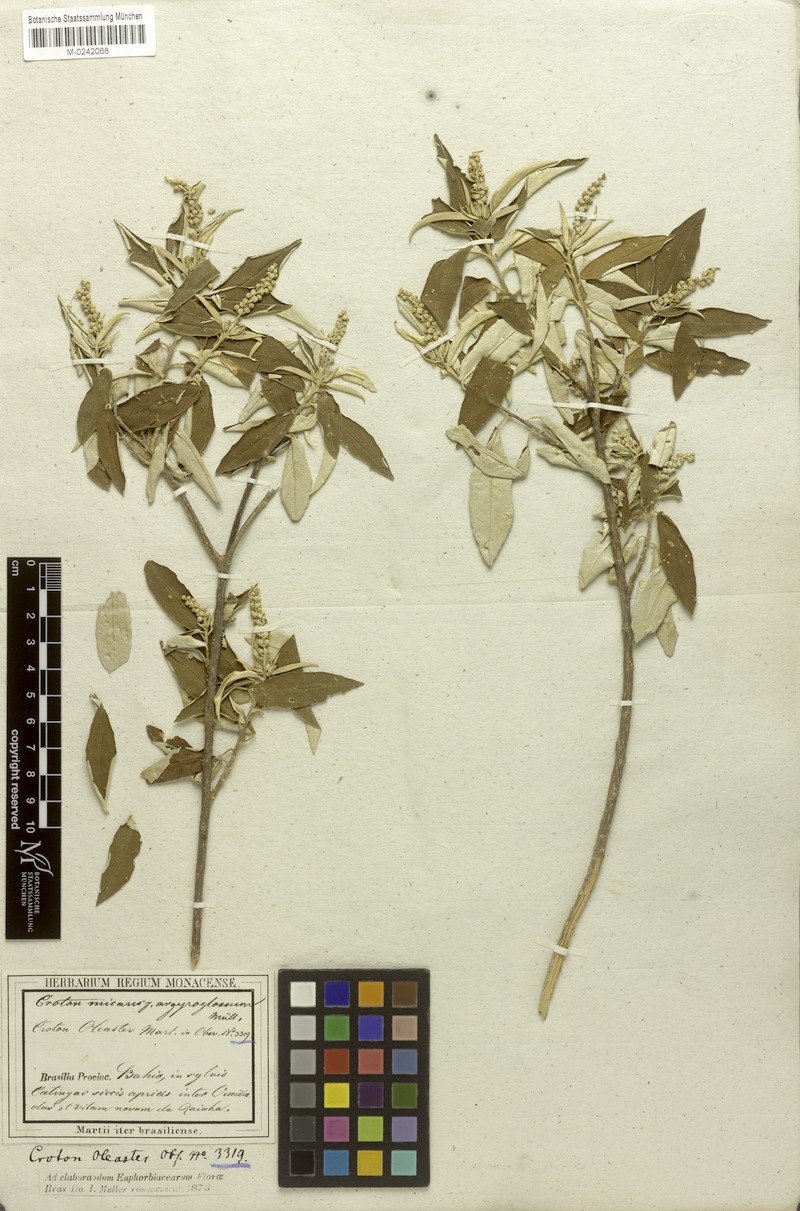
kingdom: Plantae
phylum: Tracheophyta
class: Magnoliopsida
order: Malpighiales
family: Euphorbiaceae
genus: Croton
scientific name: Croton micans
